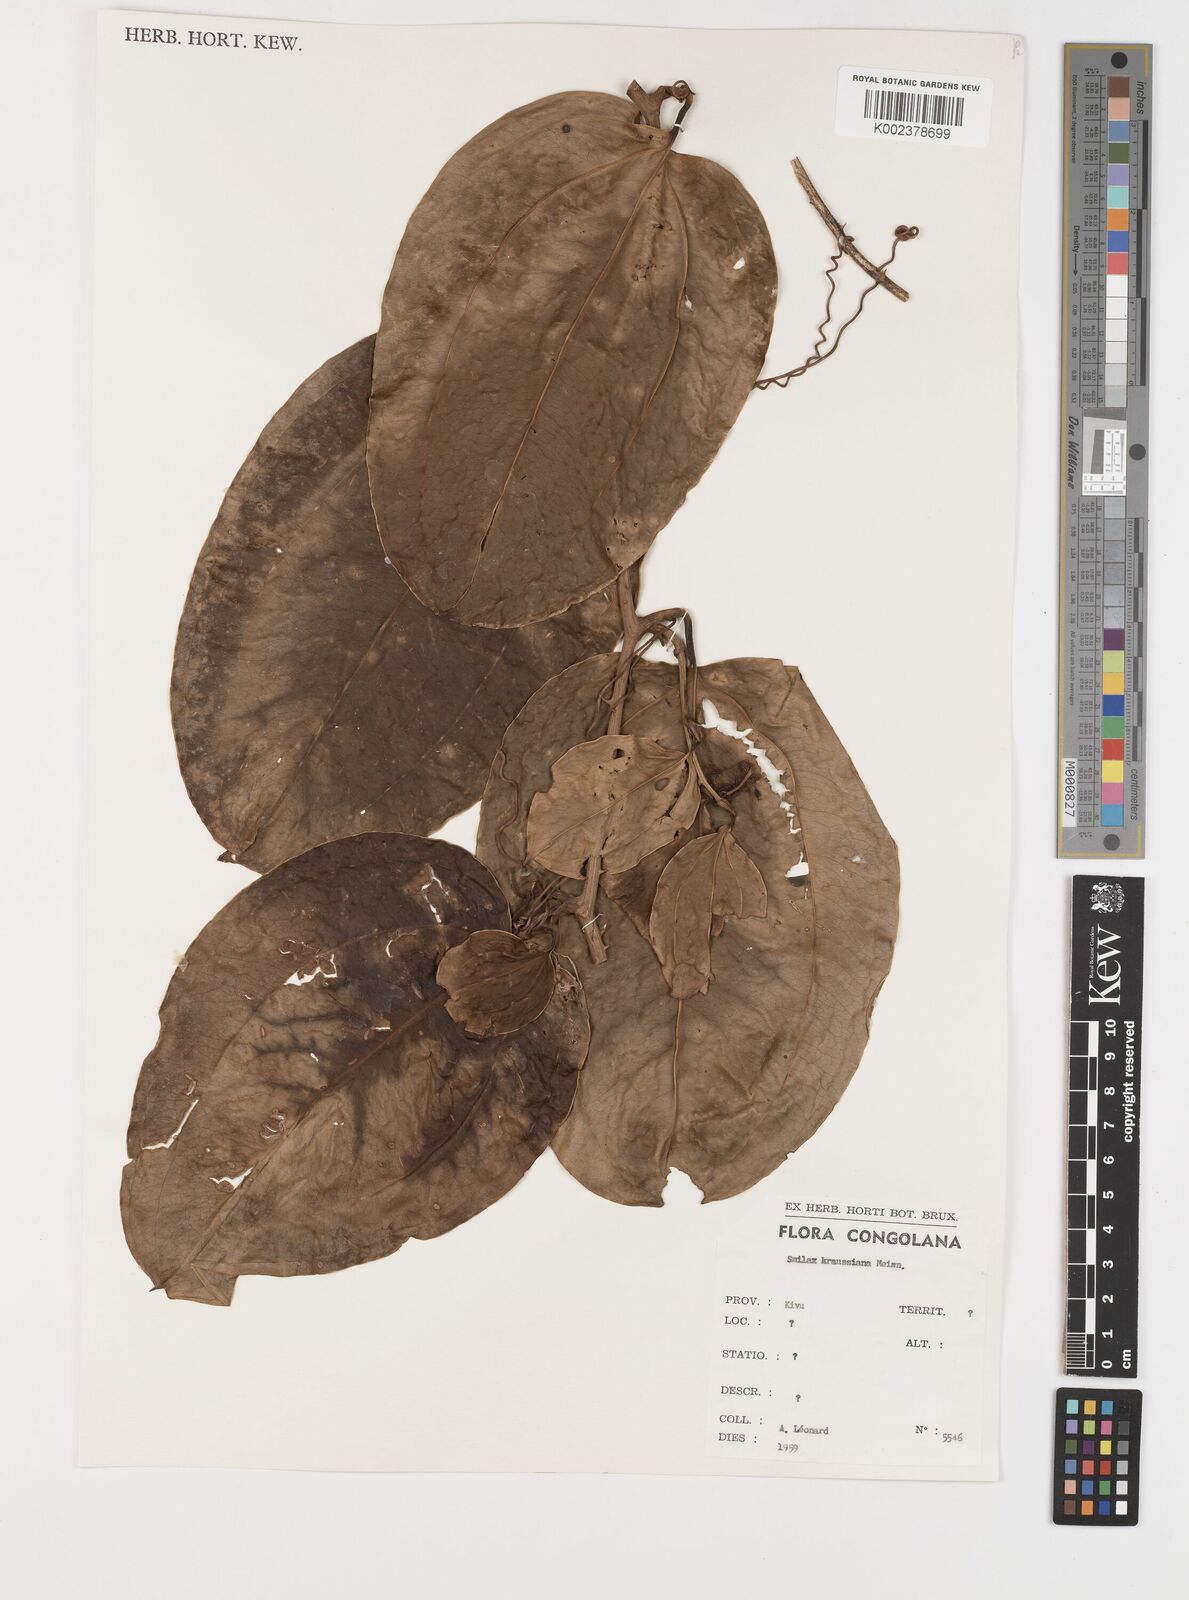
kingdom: Plantae
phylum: Tracheophyta
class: Liliopsida
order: Liliales
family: Smilacaceae
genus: Smilax
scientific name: Smilax anceps
